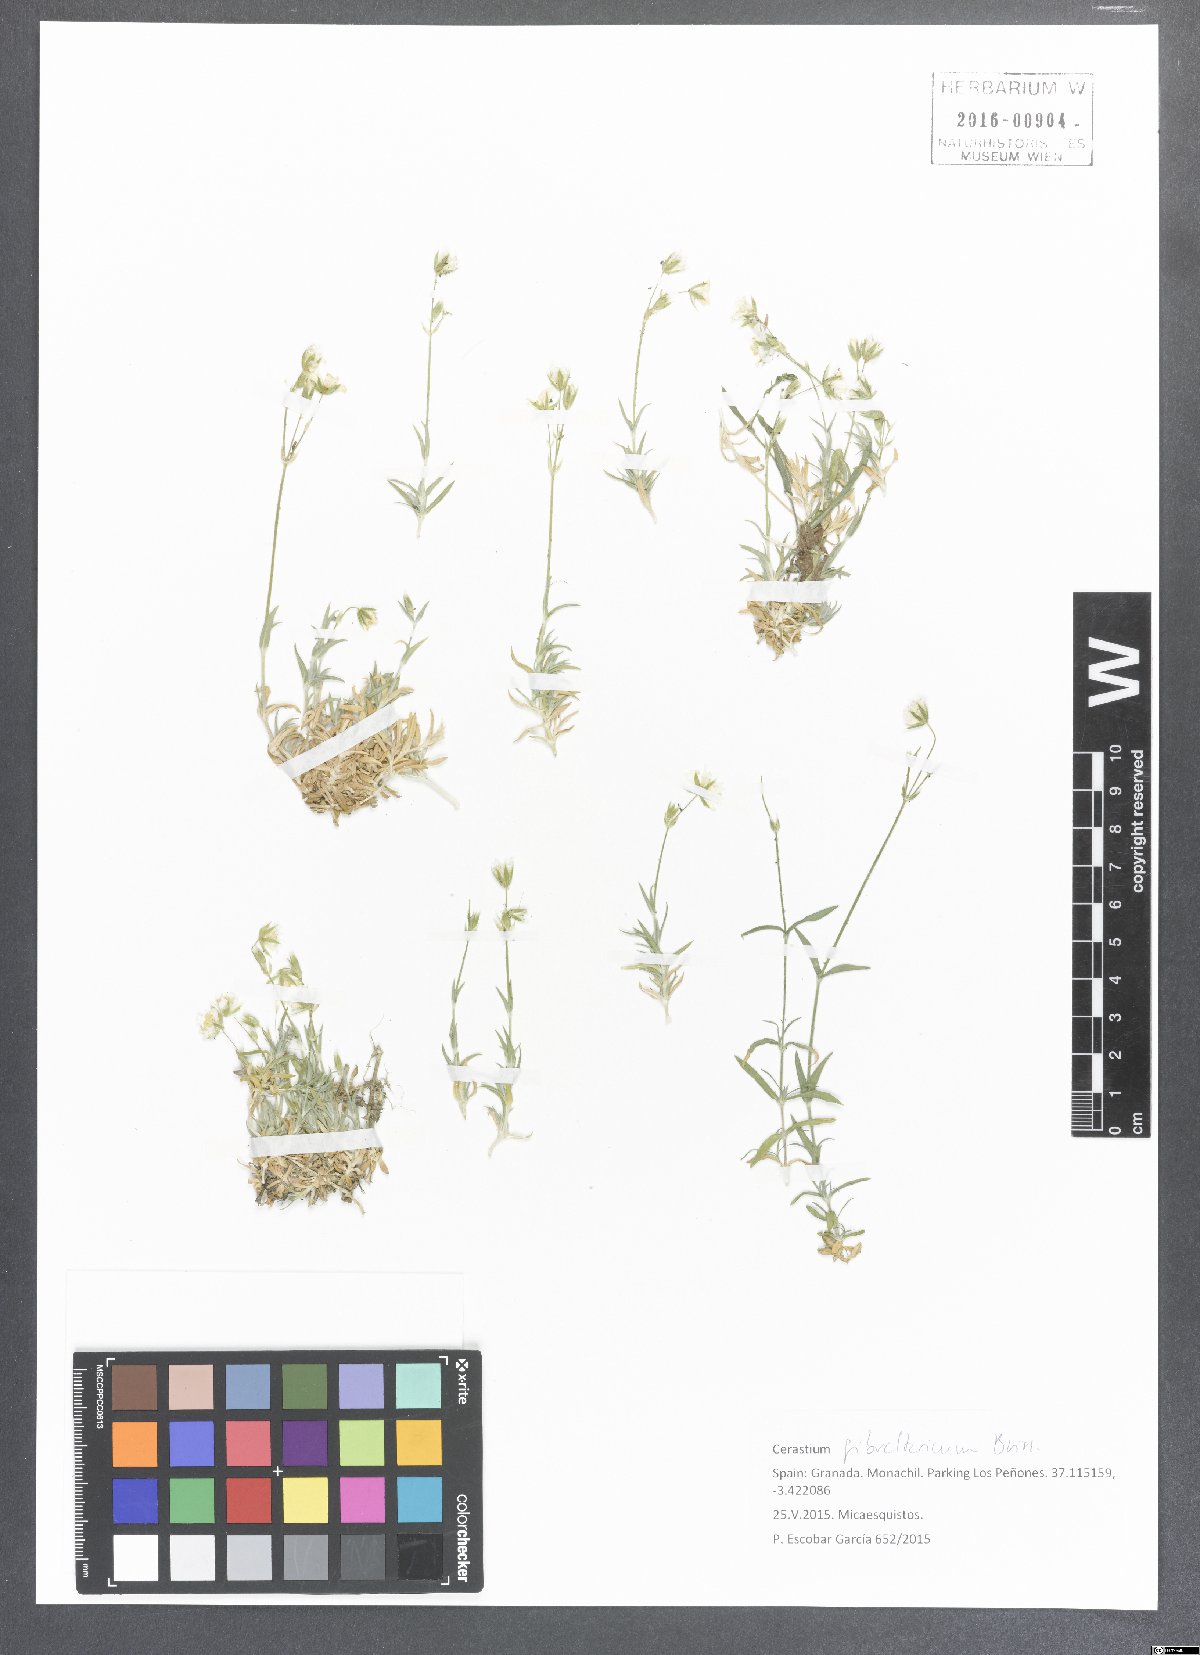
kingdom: Plantae
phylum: Tracheophyta
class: Magnoliopsida
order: Caryophyllales
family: Caryophyllaceae
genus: Cerastium
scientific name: Cerastium gibraltaricum
